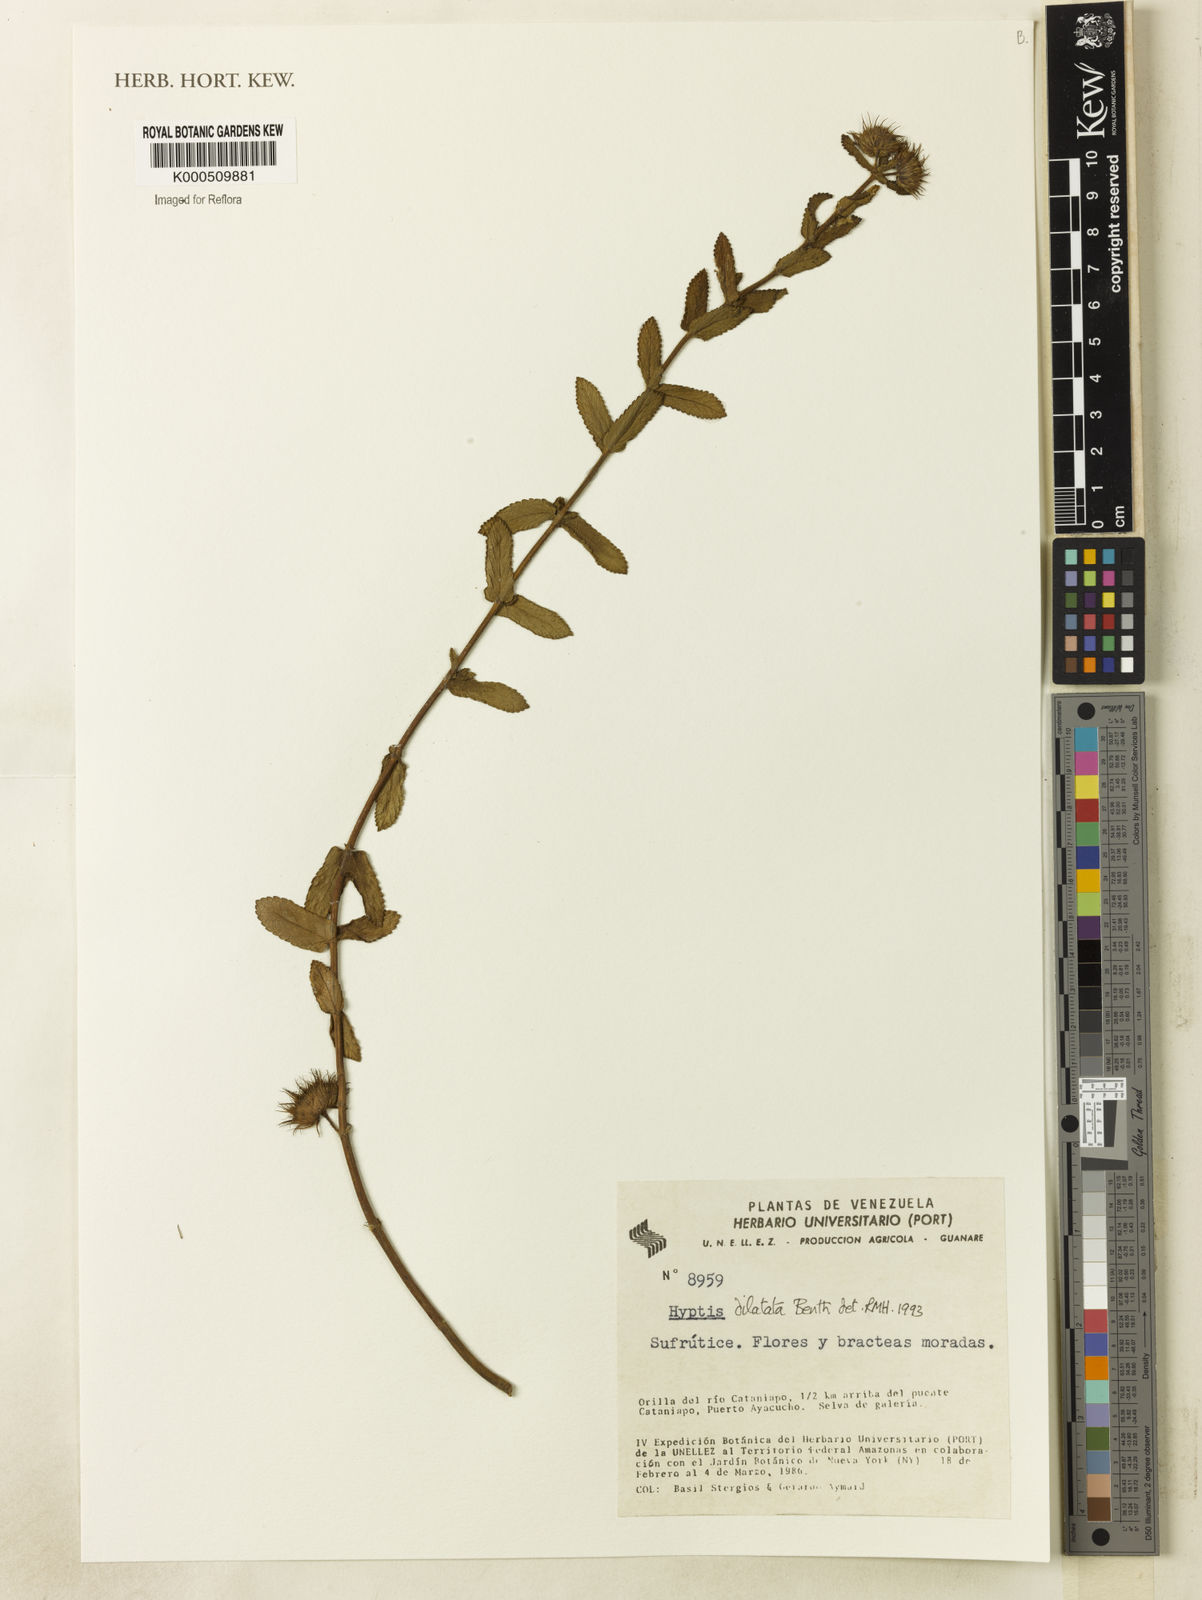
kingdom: Plantae
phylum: Tracheophyta
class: Magnoliopsida
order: Lamiales
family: Lamiaceae
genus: Hyptis
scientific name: Hyptis
